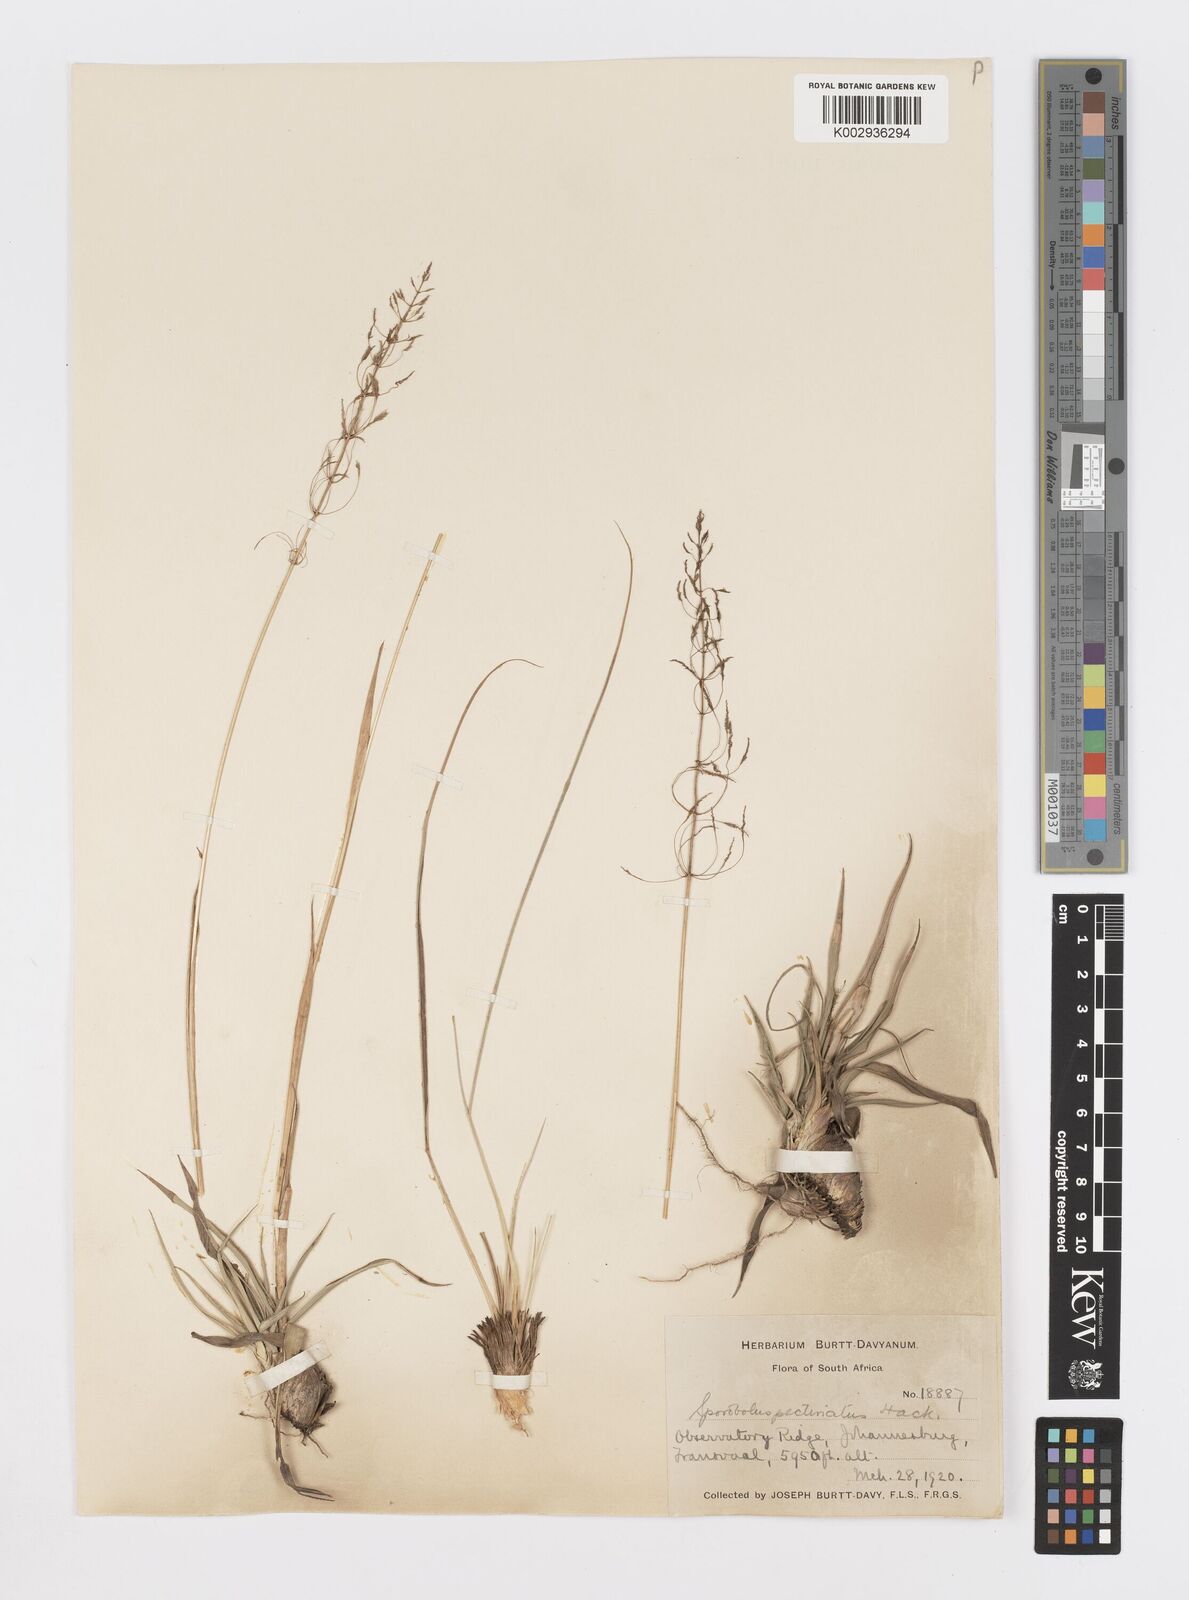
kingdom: Plantae
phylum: Tracheophyta
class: Liliopsida
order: Poales
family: Poaceae
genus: Sporobolus
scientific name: Sporobolus pectinatus
